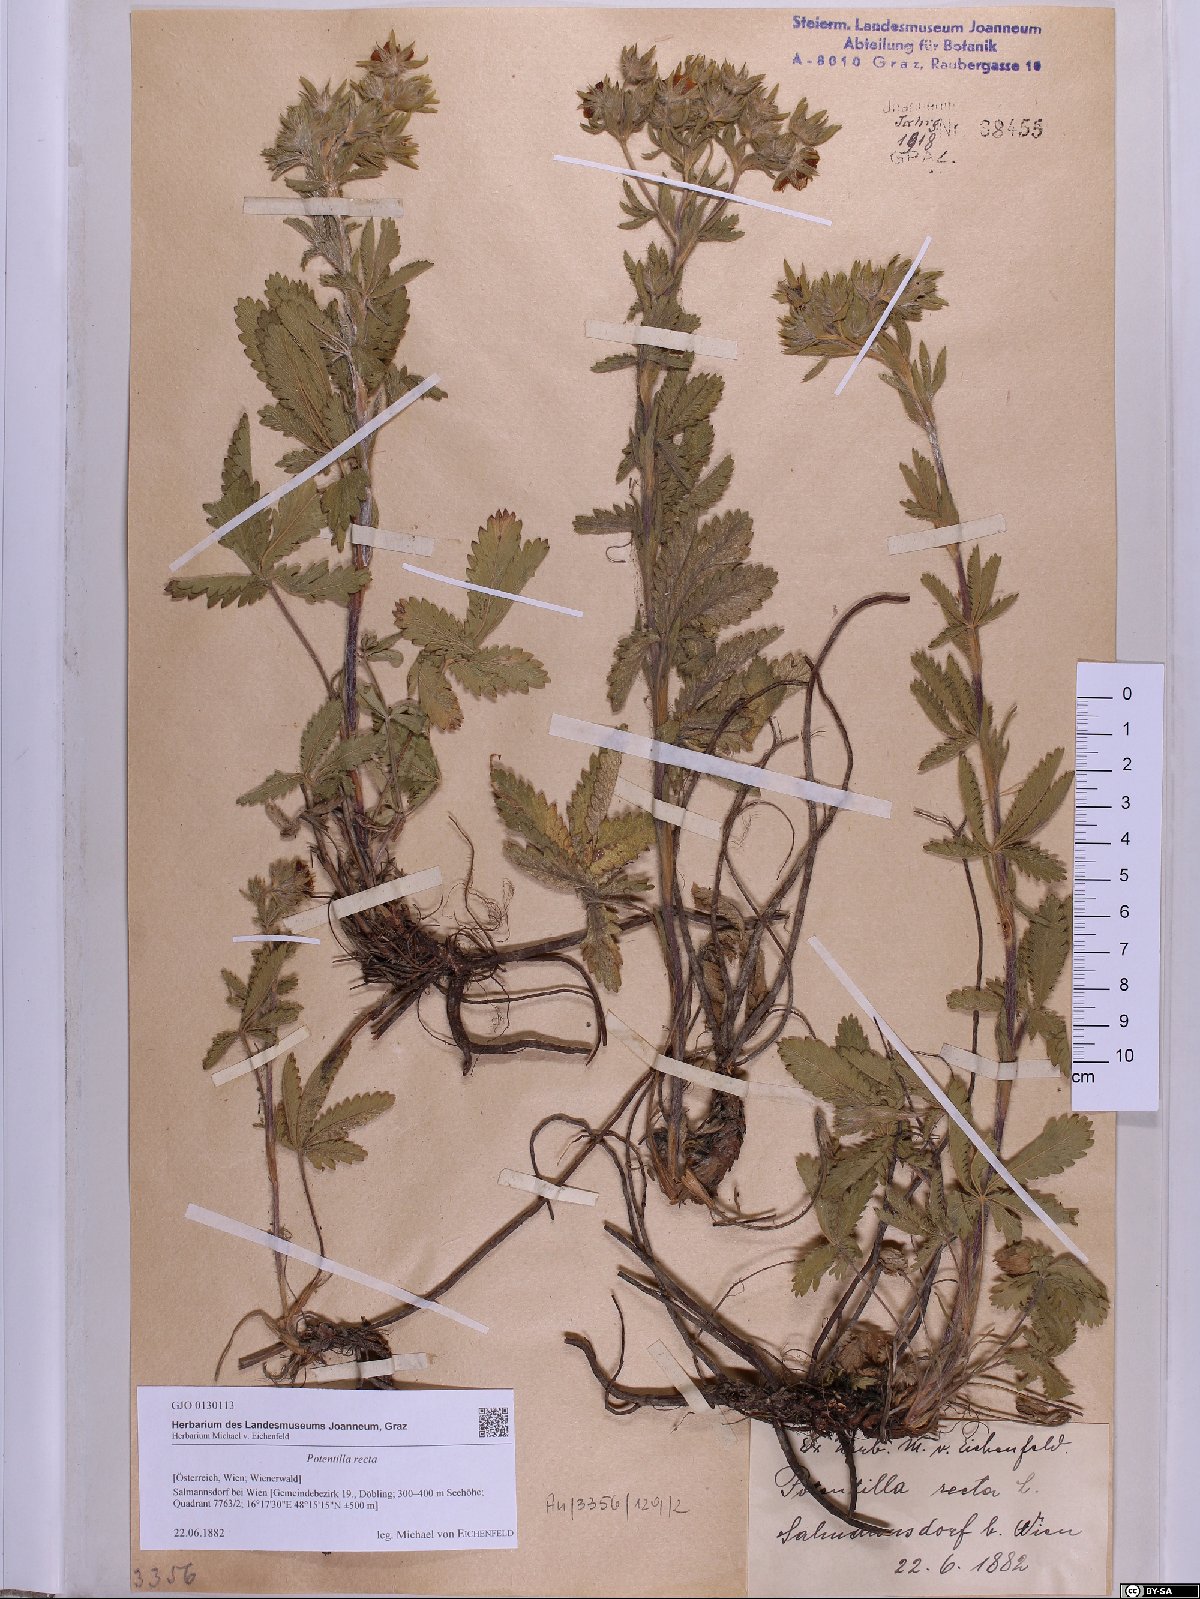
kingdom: Plantae
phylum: Tracheophyta
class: Magnoliopsida
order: Rosales
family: Rosaceae
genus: Potentilla
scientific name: Potentilla recta
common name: Sulphur cinquefoil
